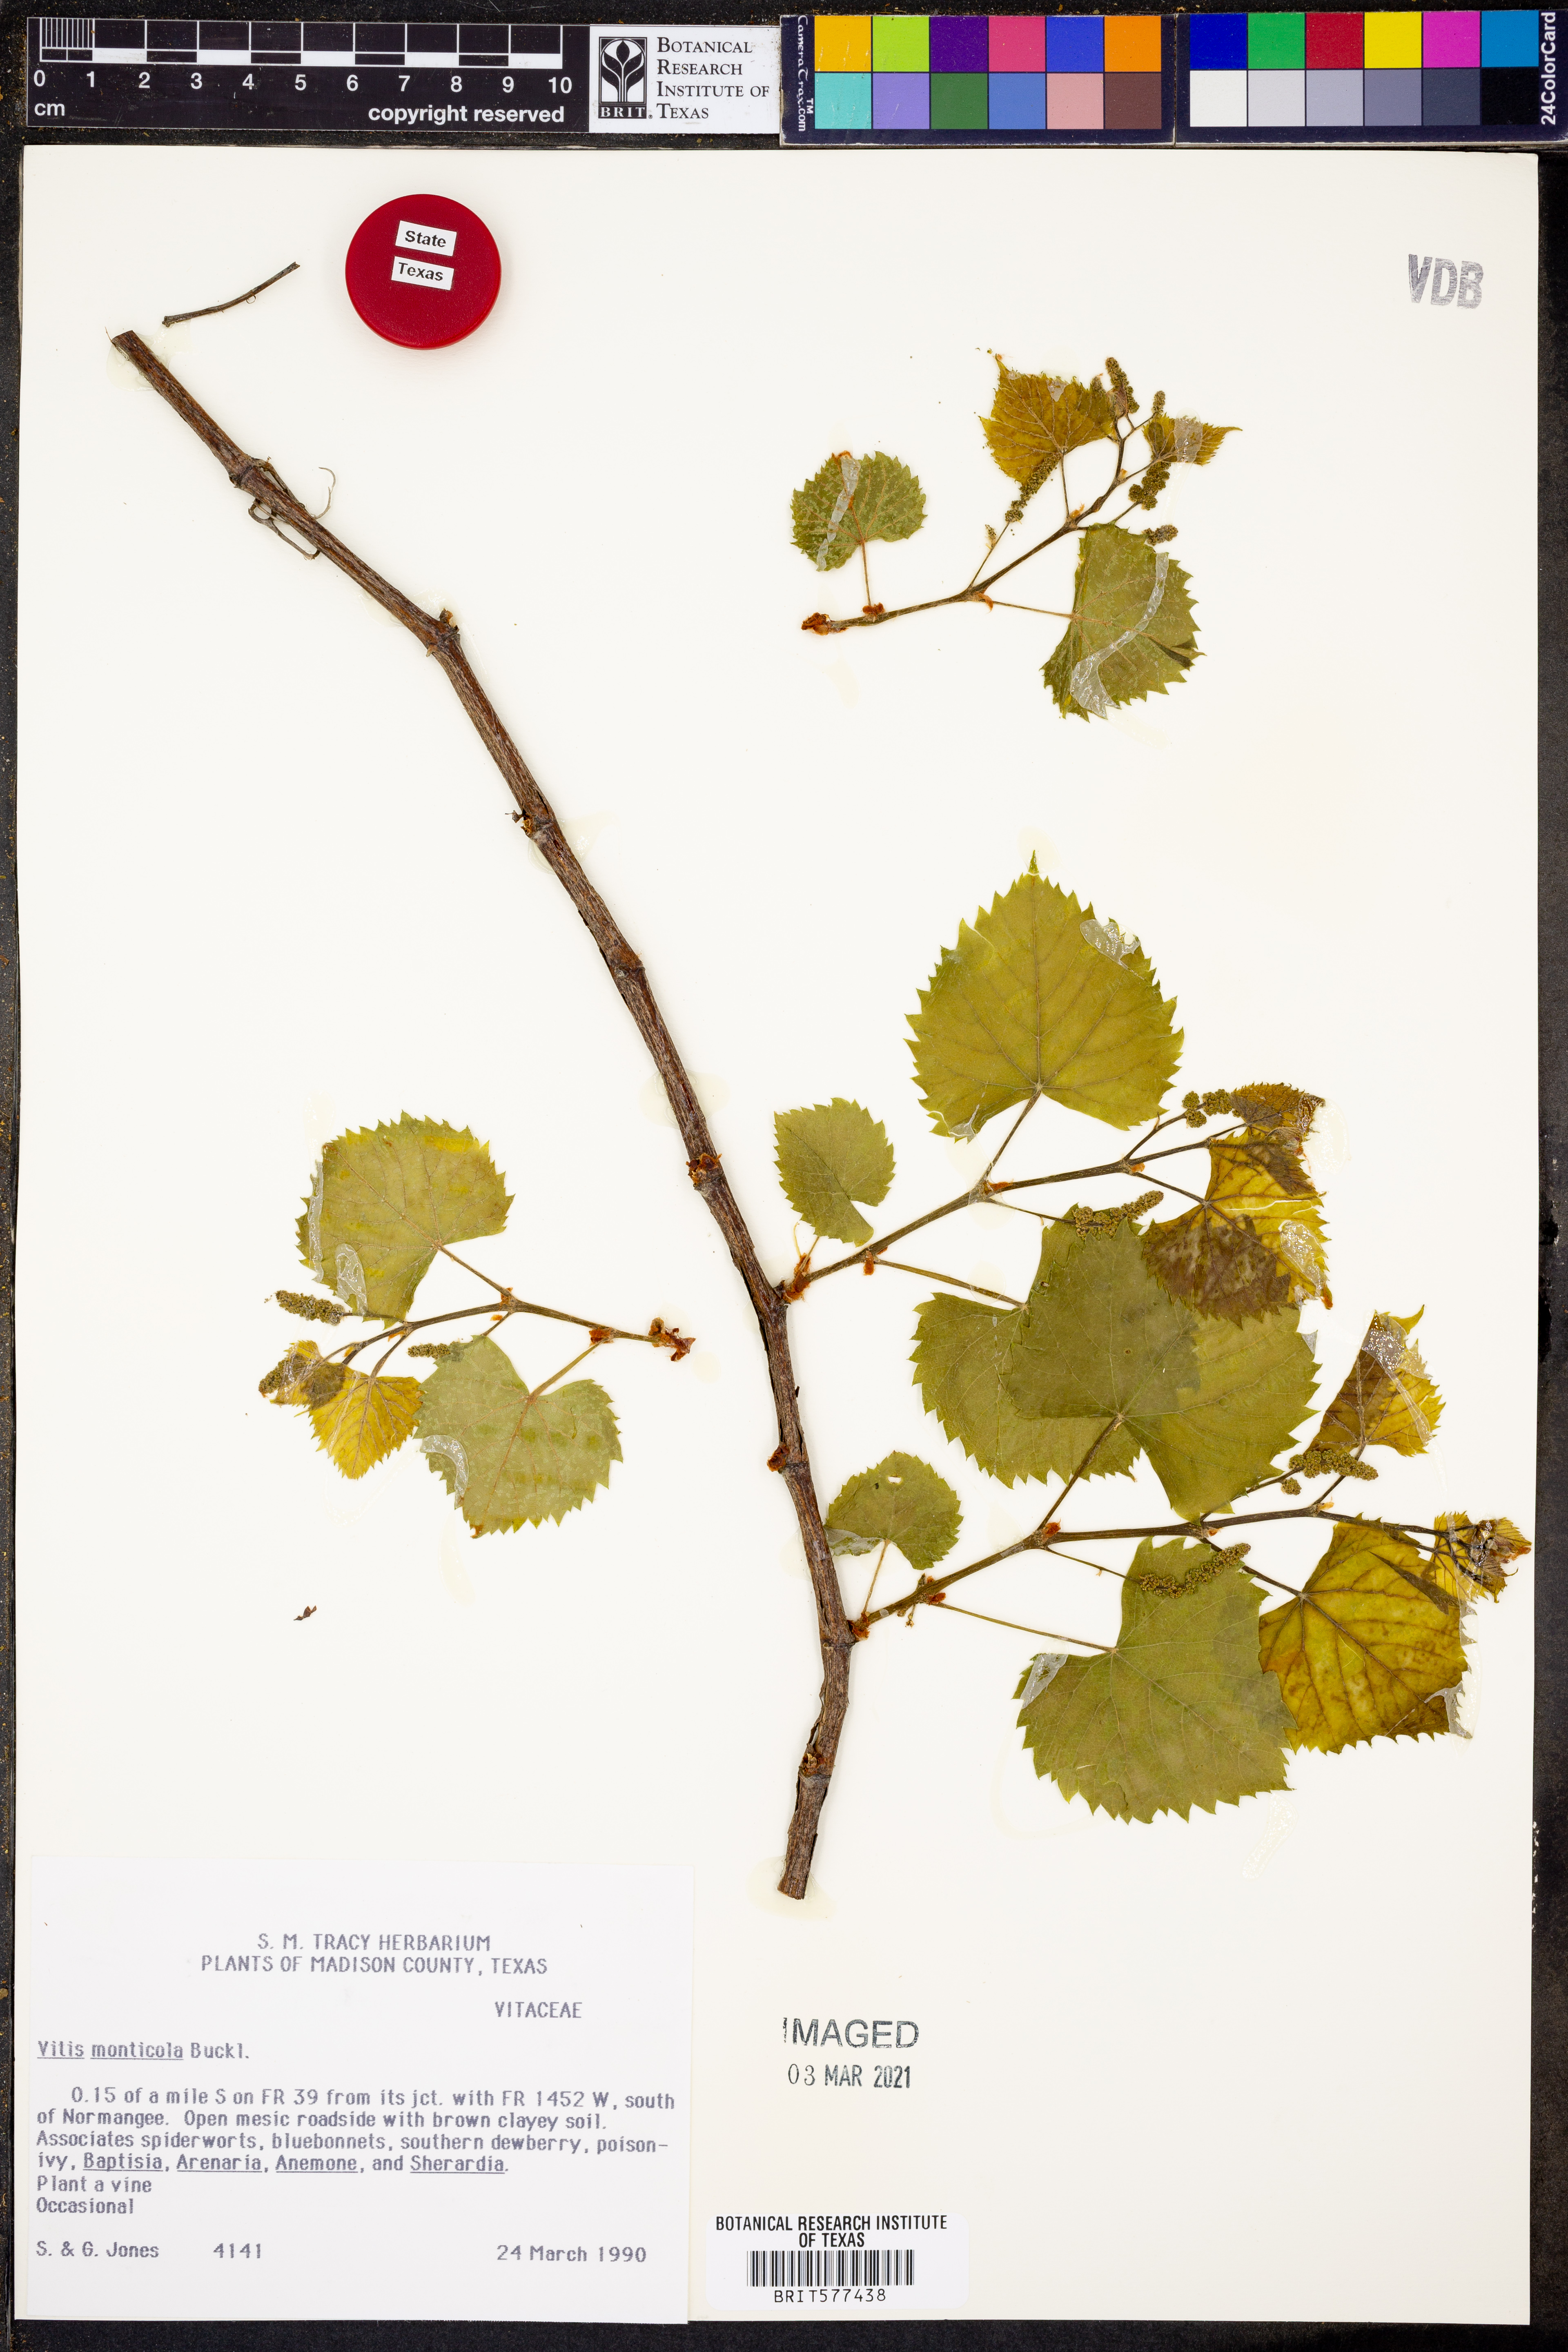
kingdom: Plantae
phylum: Tracheophyta
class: Magnoliopsida
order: Vitales
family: Vitaceae
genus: Vitis
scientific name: Vitis monticola
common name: Mountain grape
